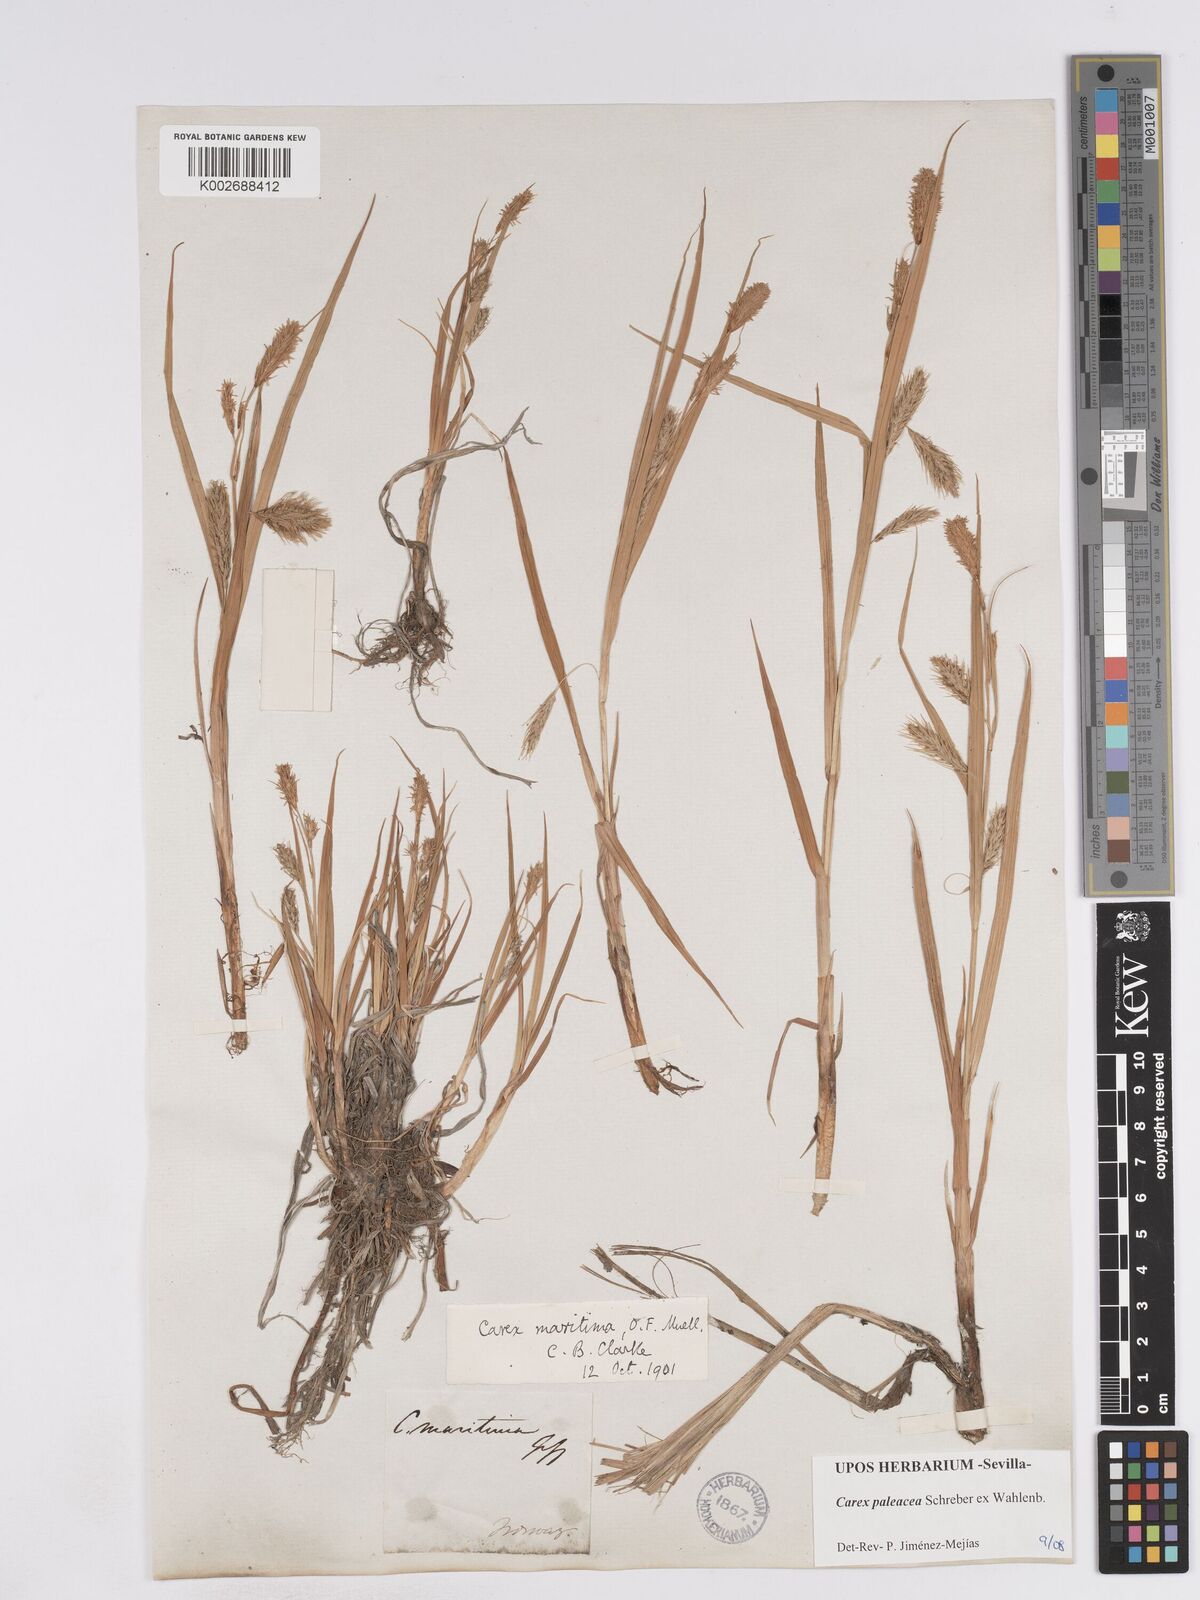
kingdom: Plantae
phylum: Tracheophyta
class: Liliopsida
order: Poales
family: Cyperaceae
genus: Carex
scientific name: Carex paleacea
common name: Chaffy sedge
